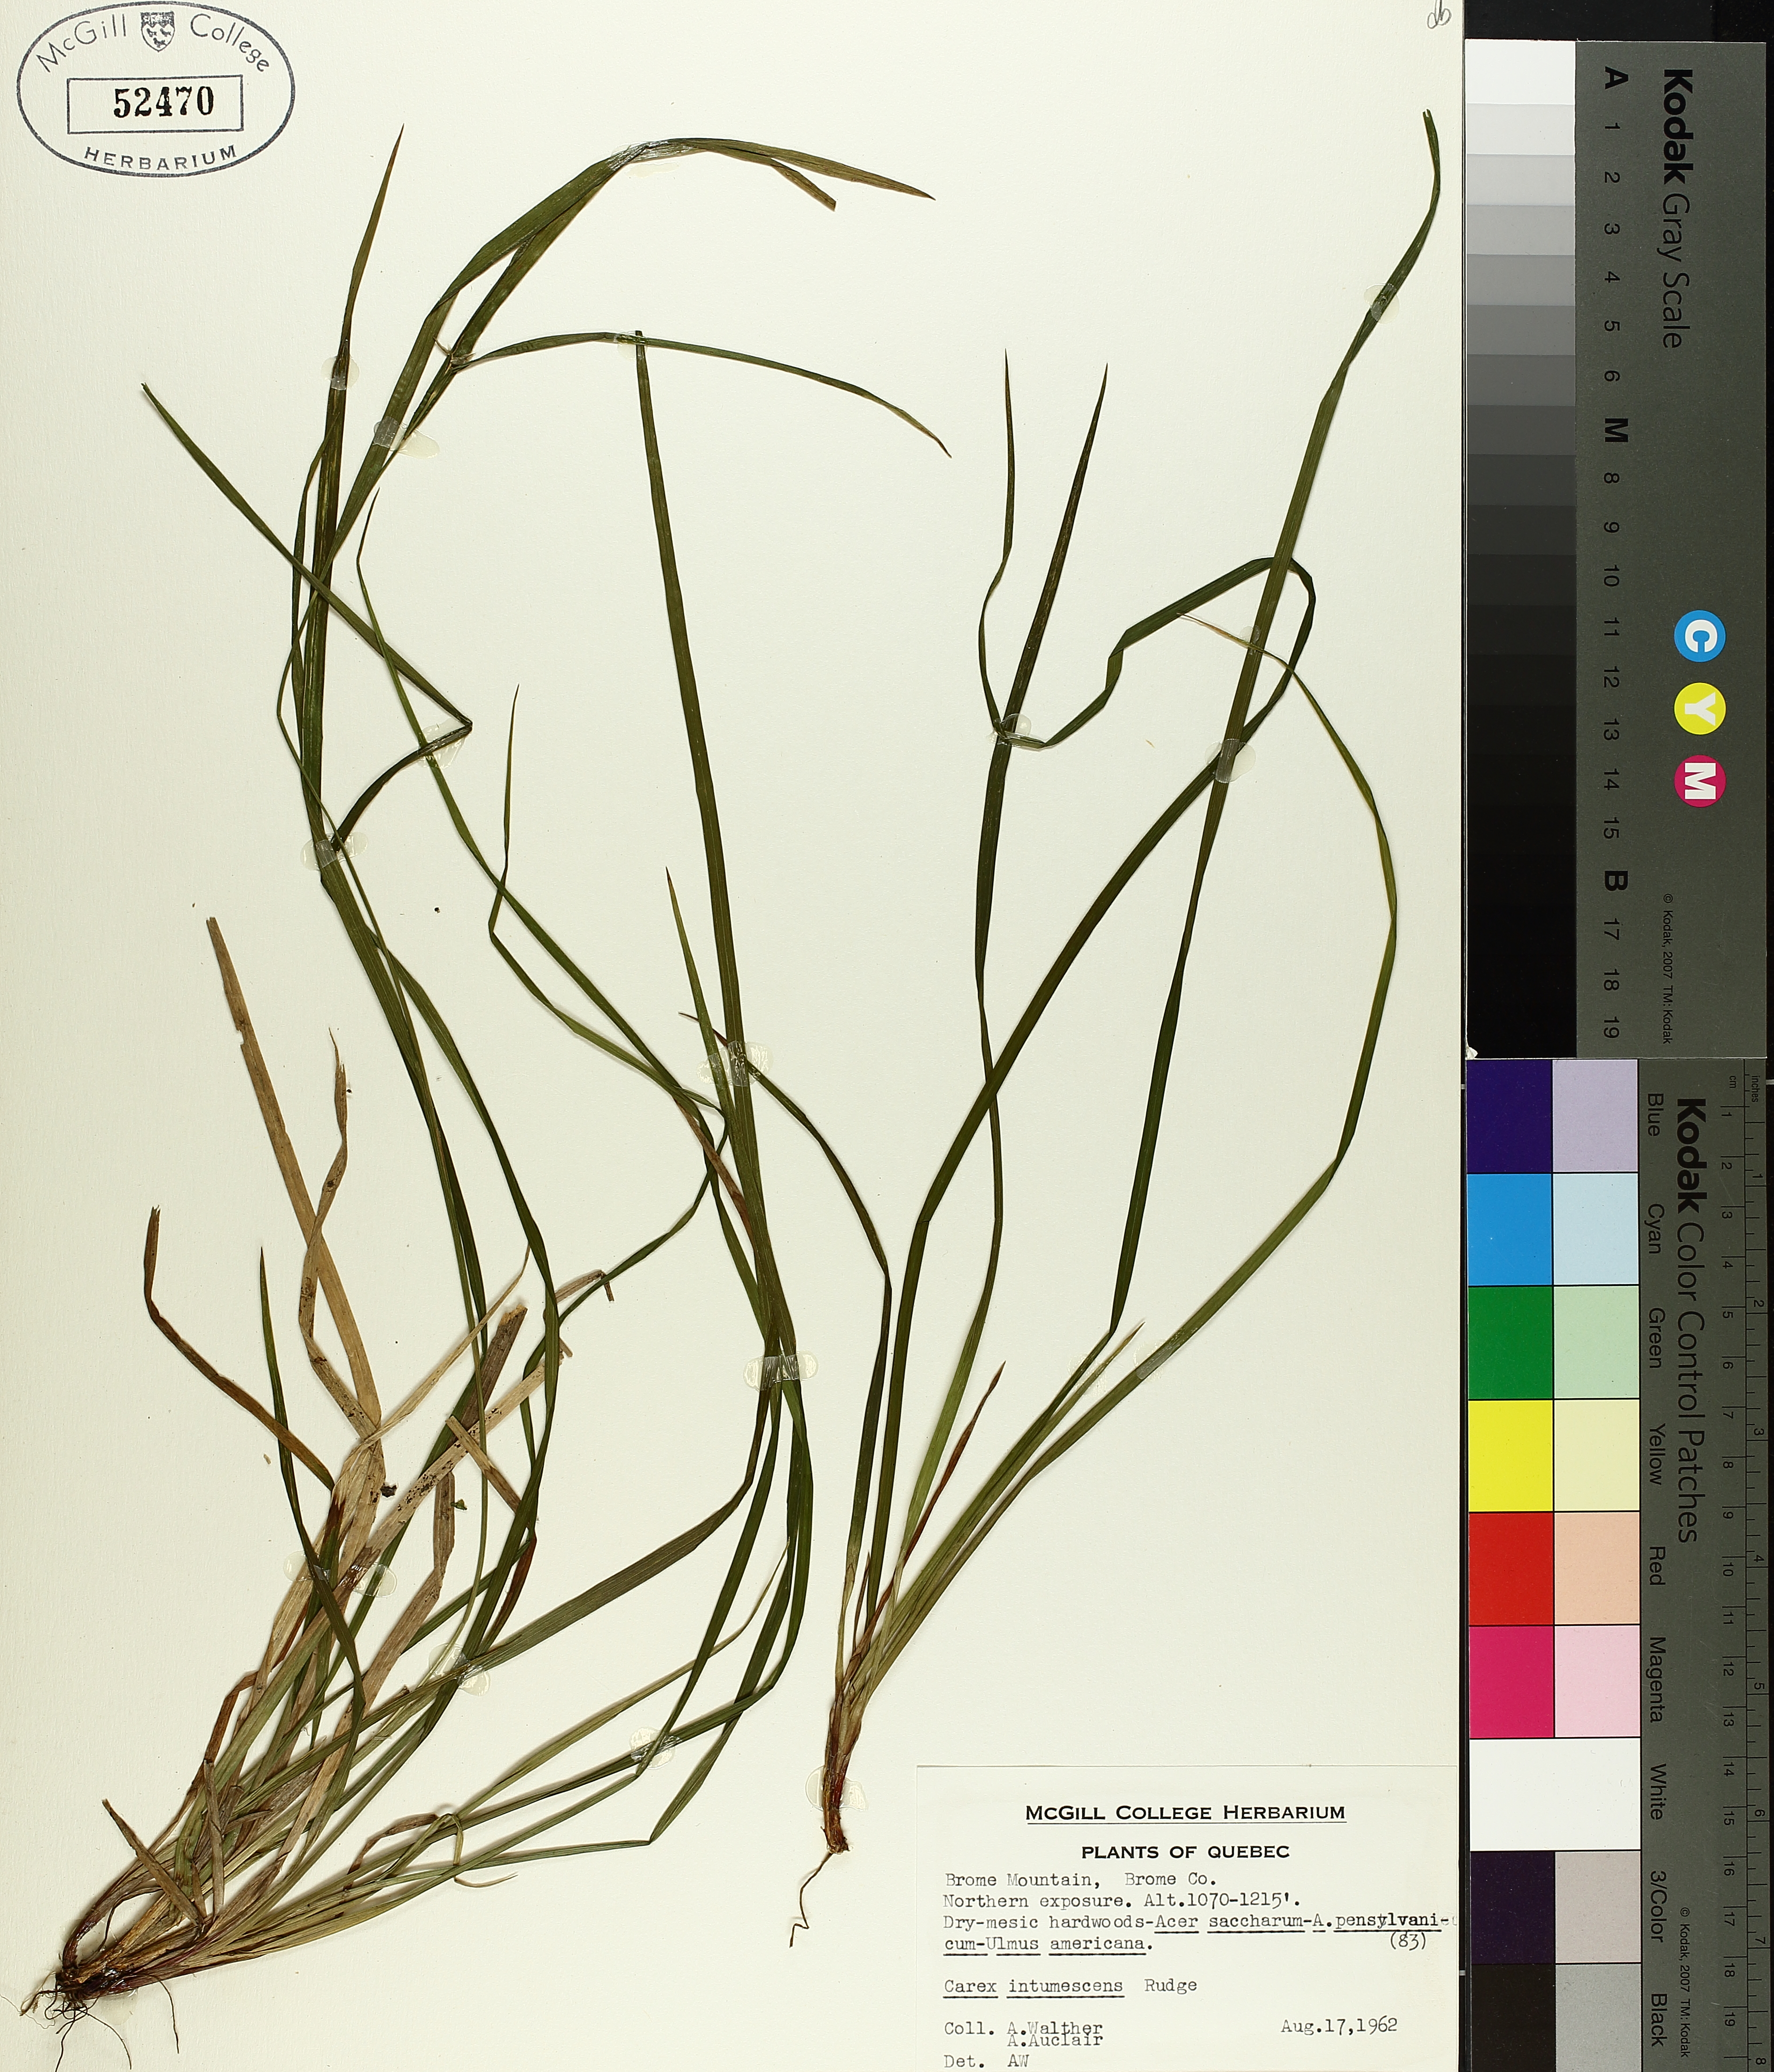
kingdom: Plantae
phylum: Tracheophyta
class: Liliopsida
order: Poales
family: Cyperaceae
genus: Carex
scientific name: Carex intumescens
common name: Greater bladder sedge
